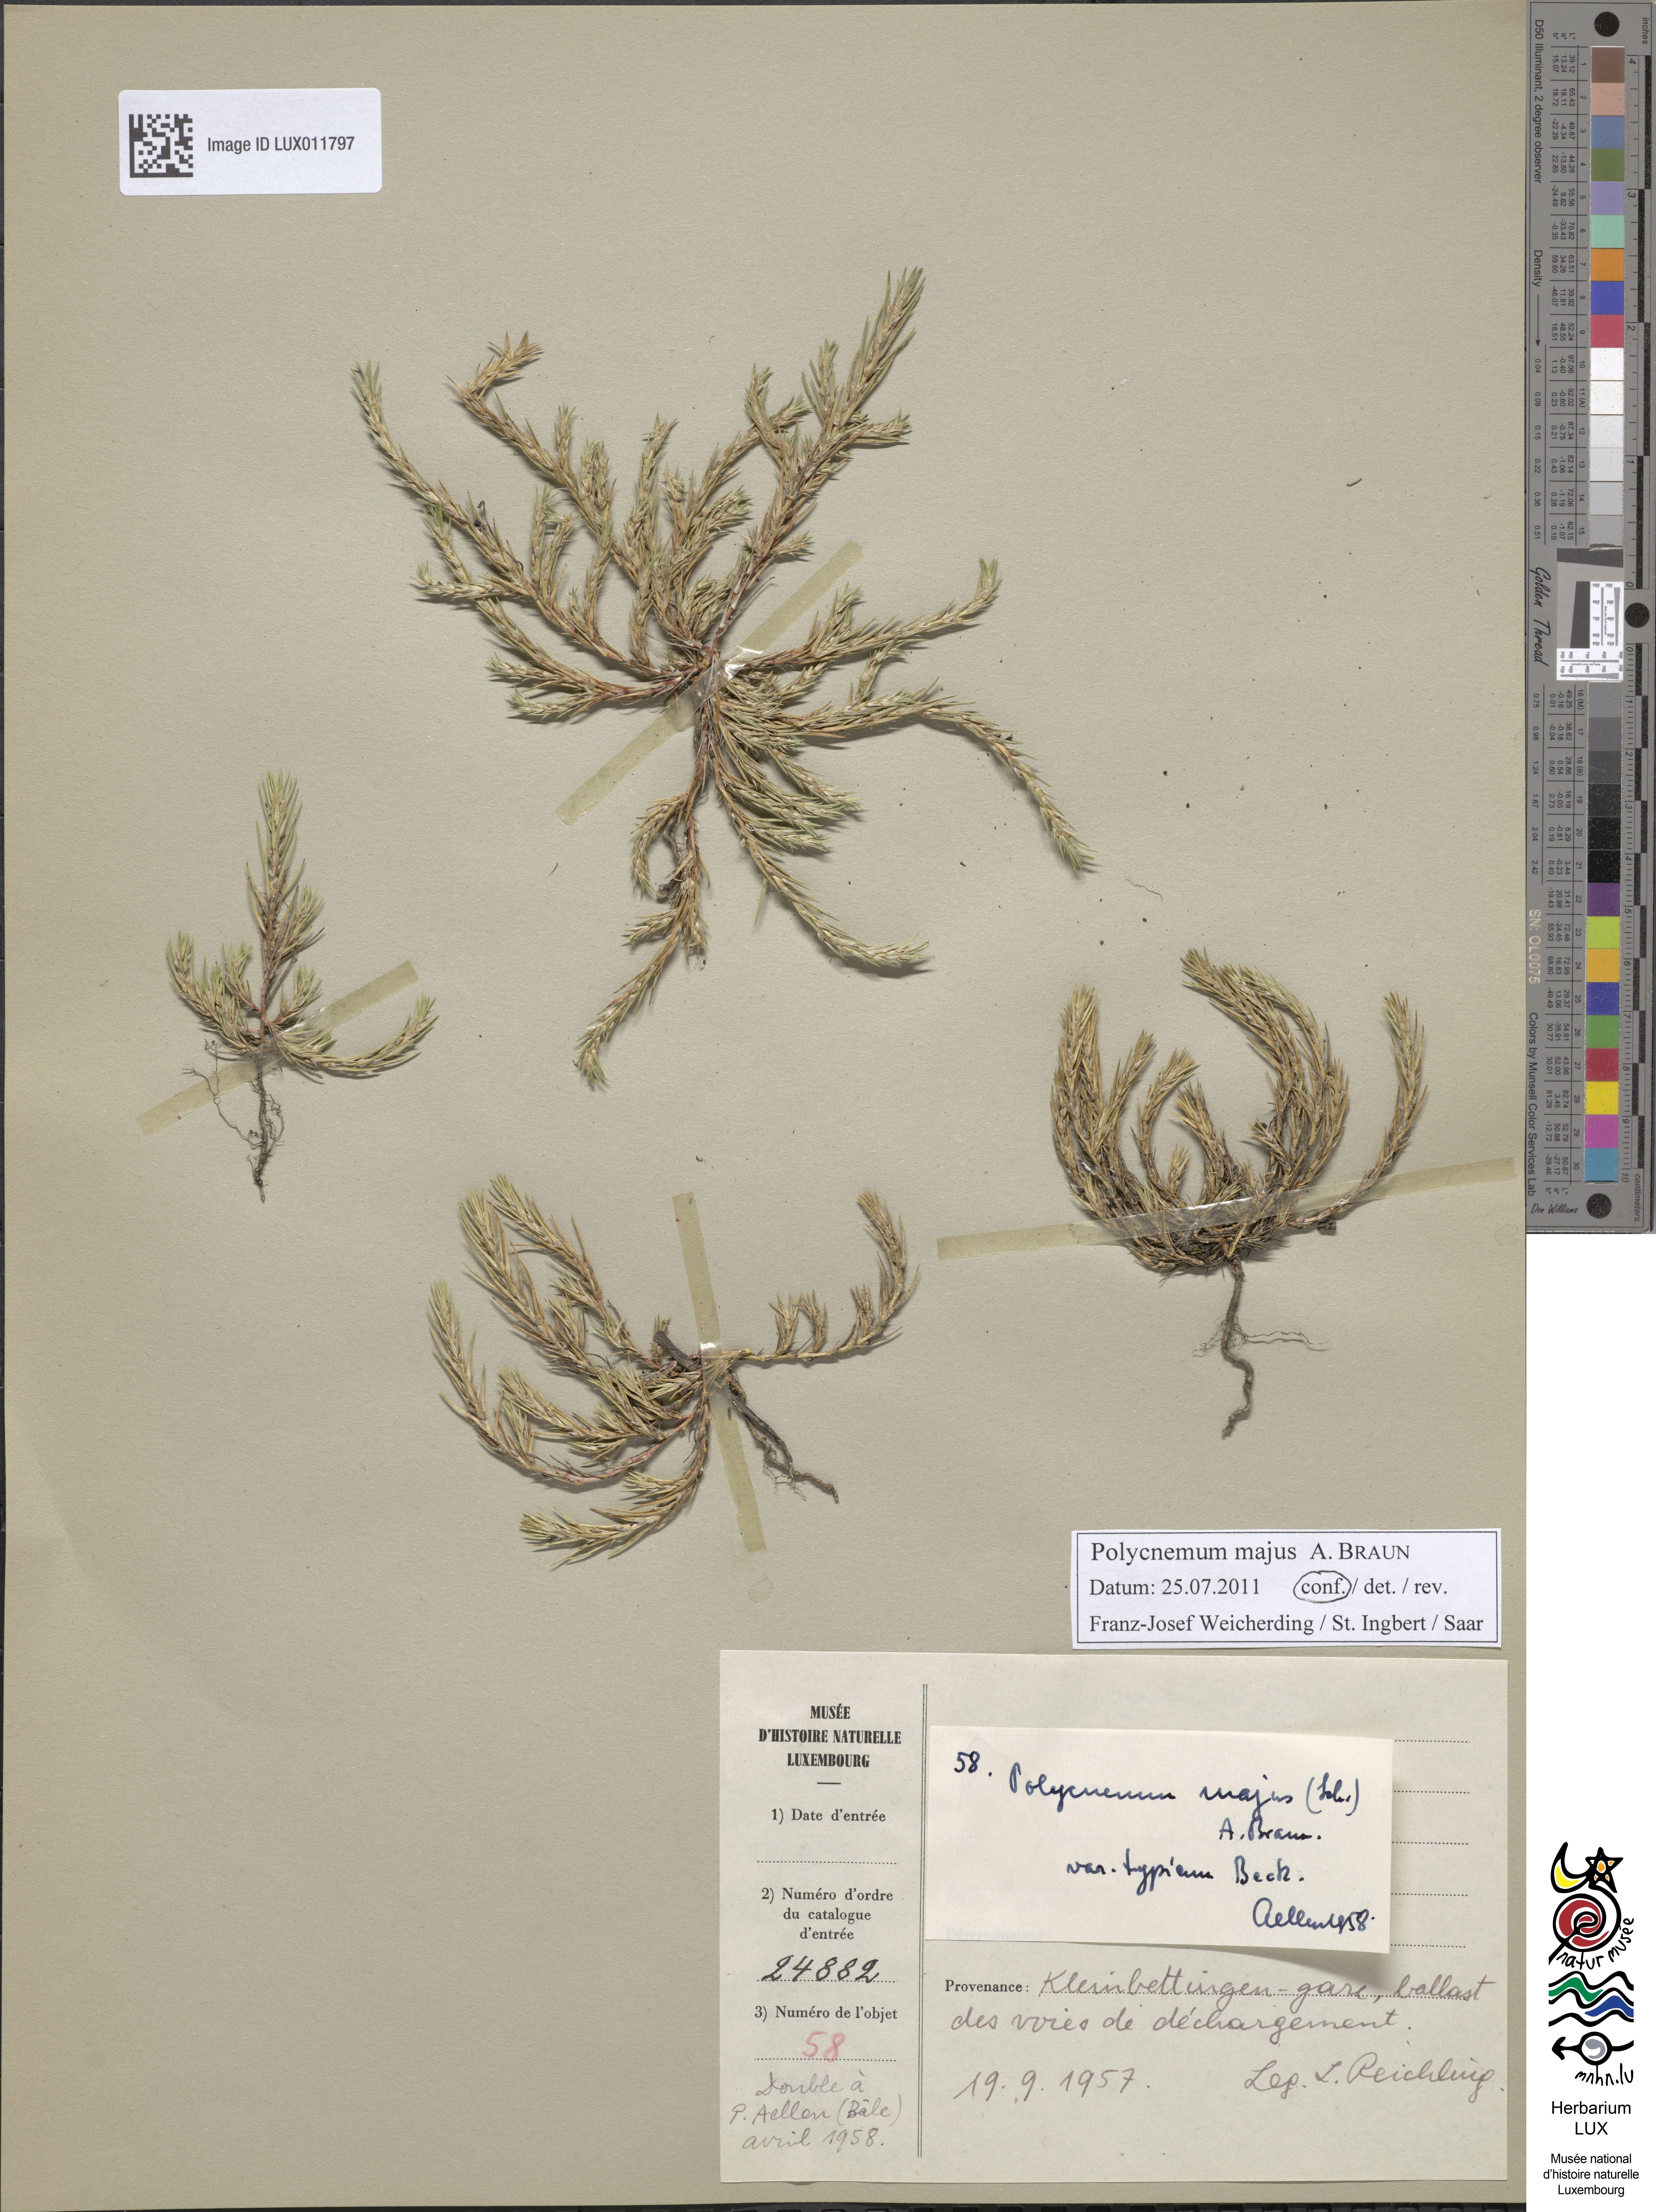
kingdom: Plantae
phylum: Tracheophyta
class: Magnoliopsida
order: Caryophyllales
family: Amaranthaceae
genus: Polycnemum
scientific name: Polycnemum majus
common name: Giant needleleaf
